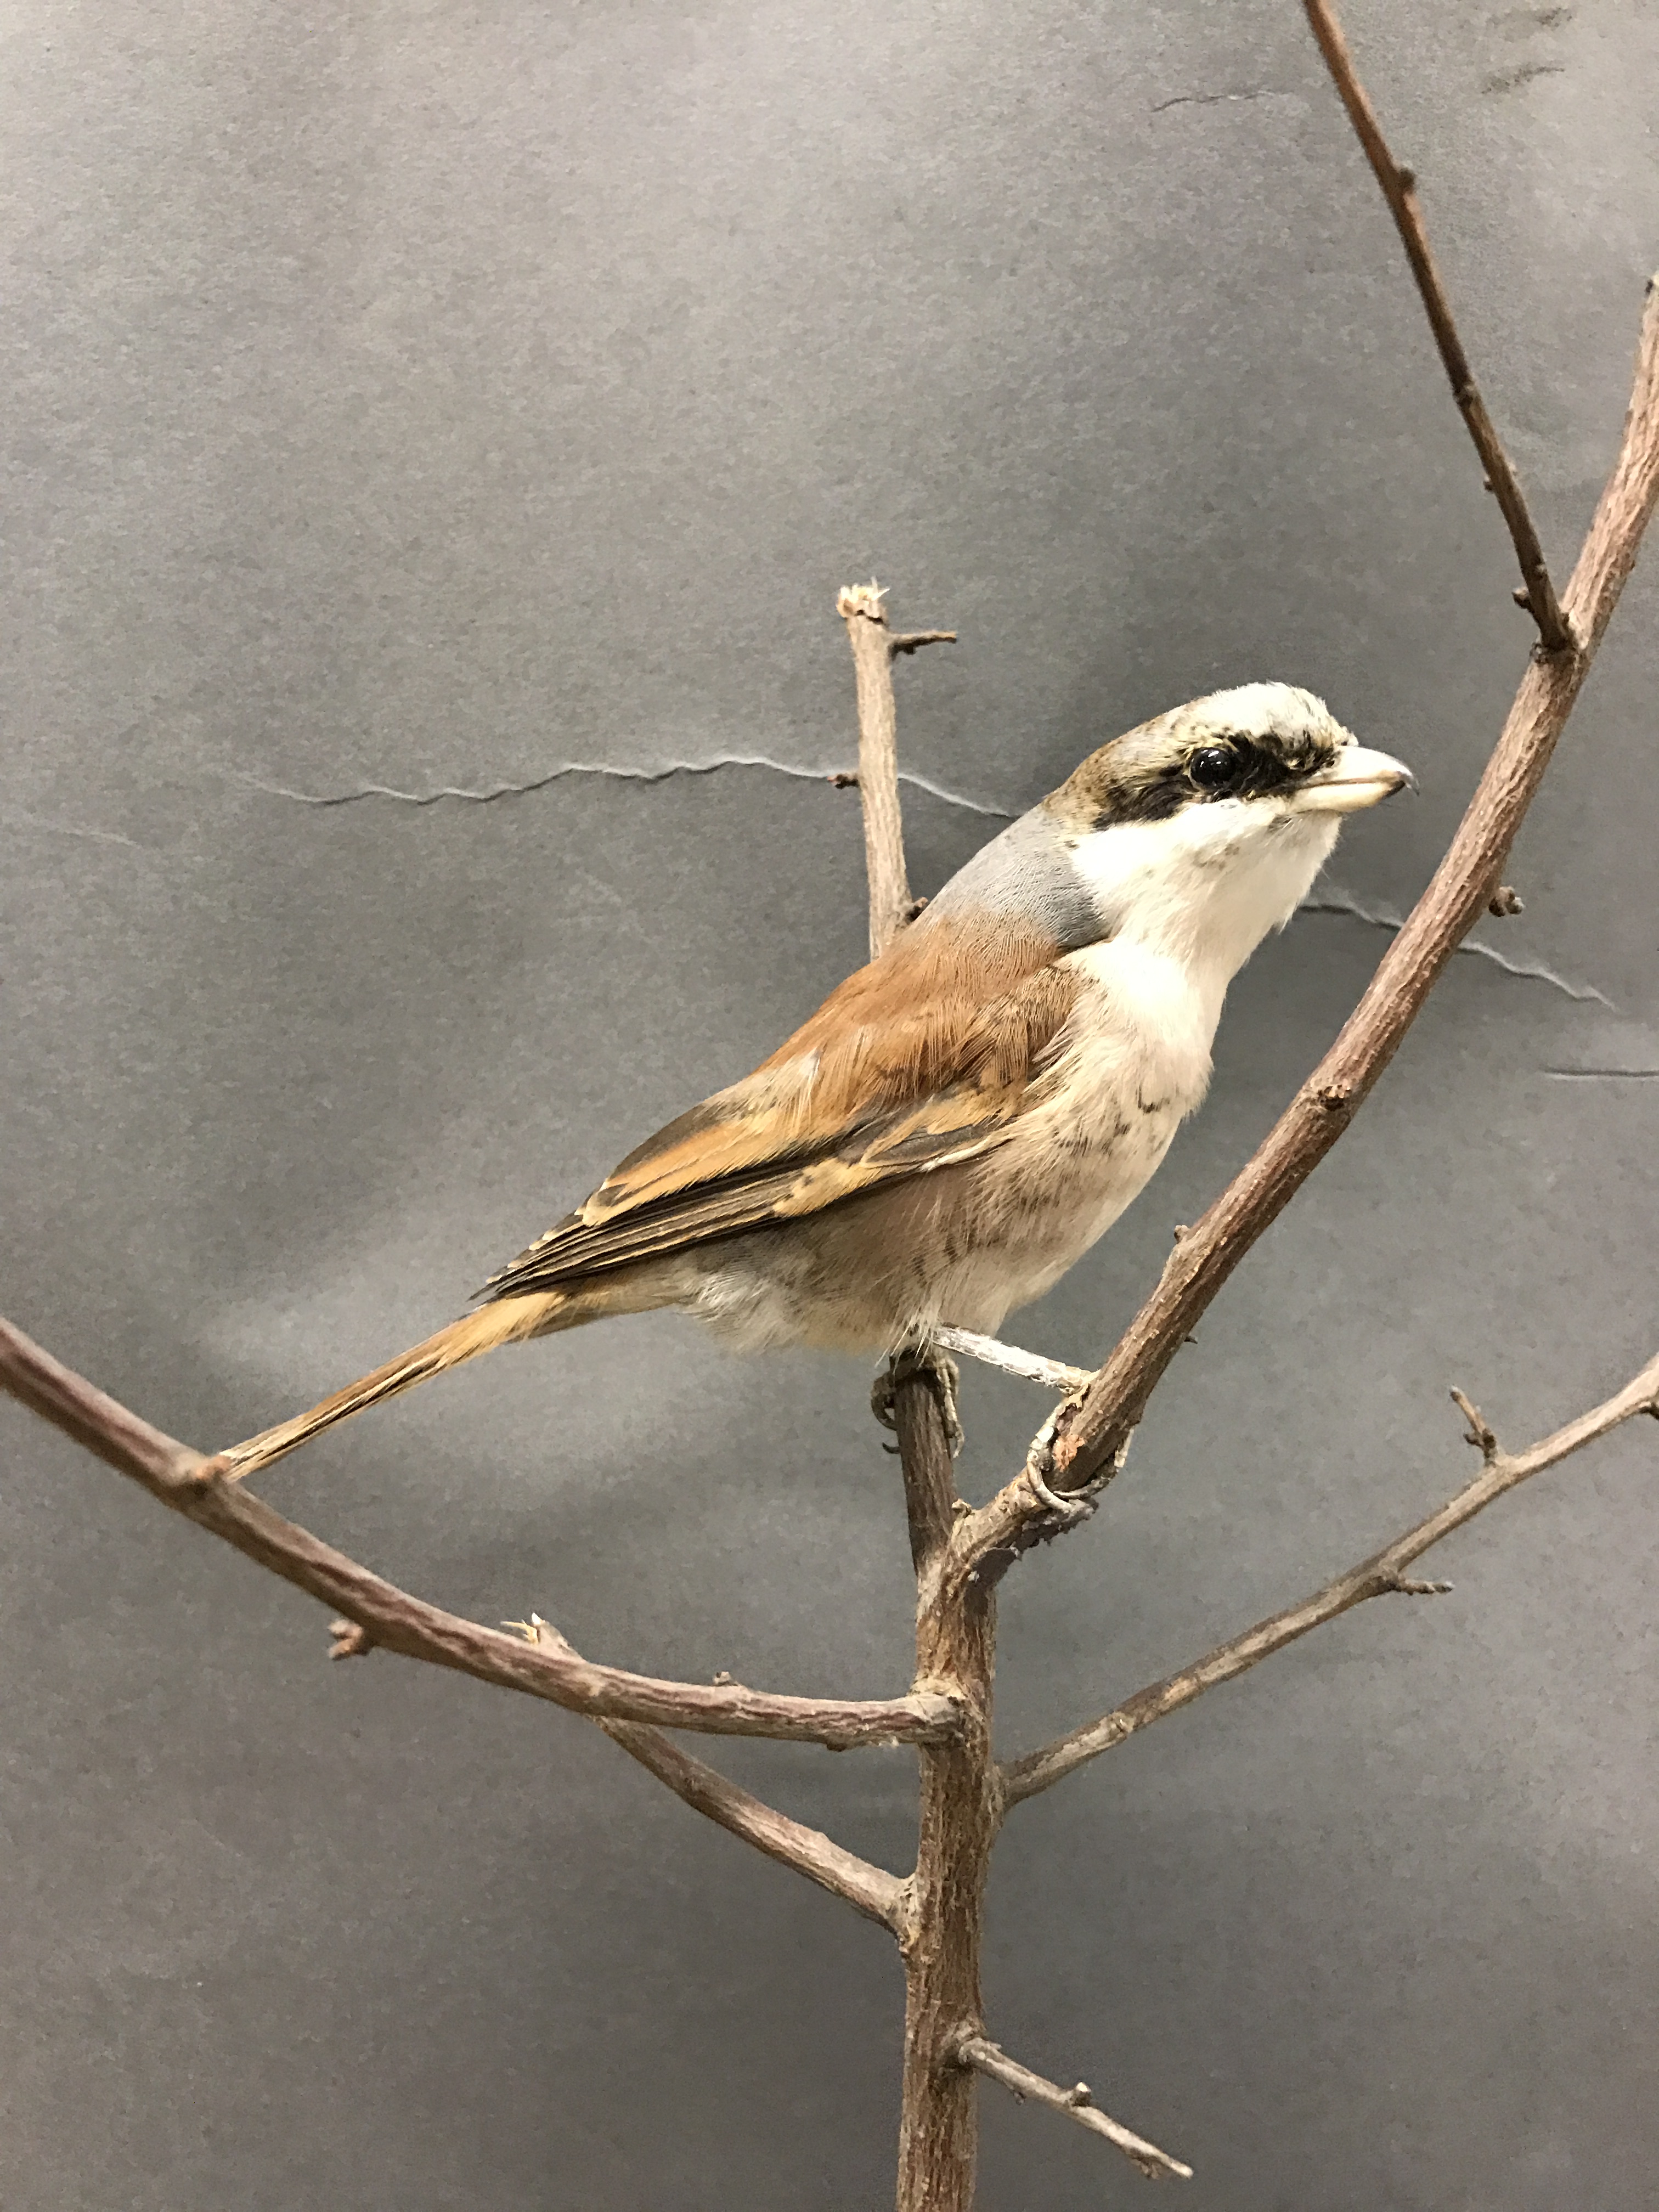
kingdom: Animalia
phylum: Chordata
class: Aves
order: Passeriformes
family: Laniidae
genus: Lanius
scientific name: Lanius collurio
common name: Red-backed shrike
